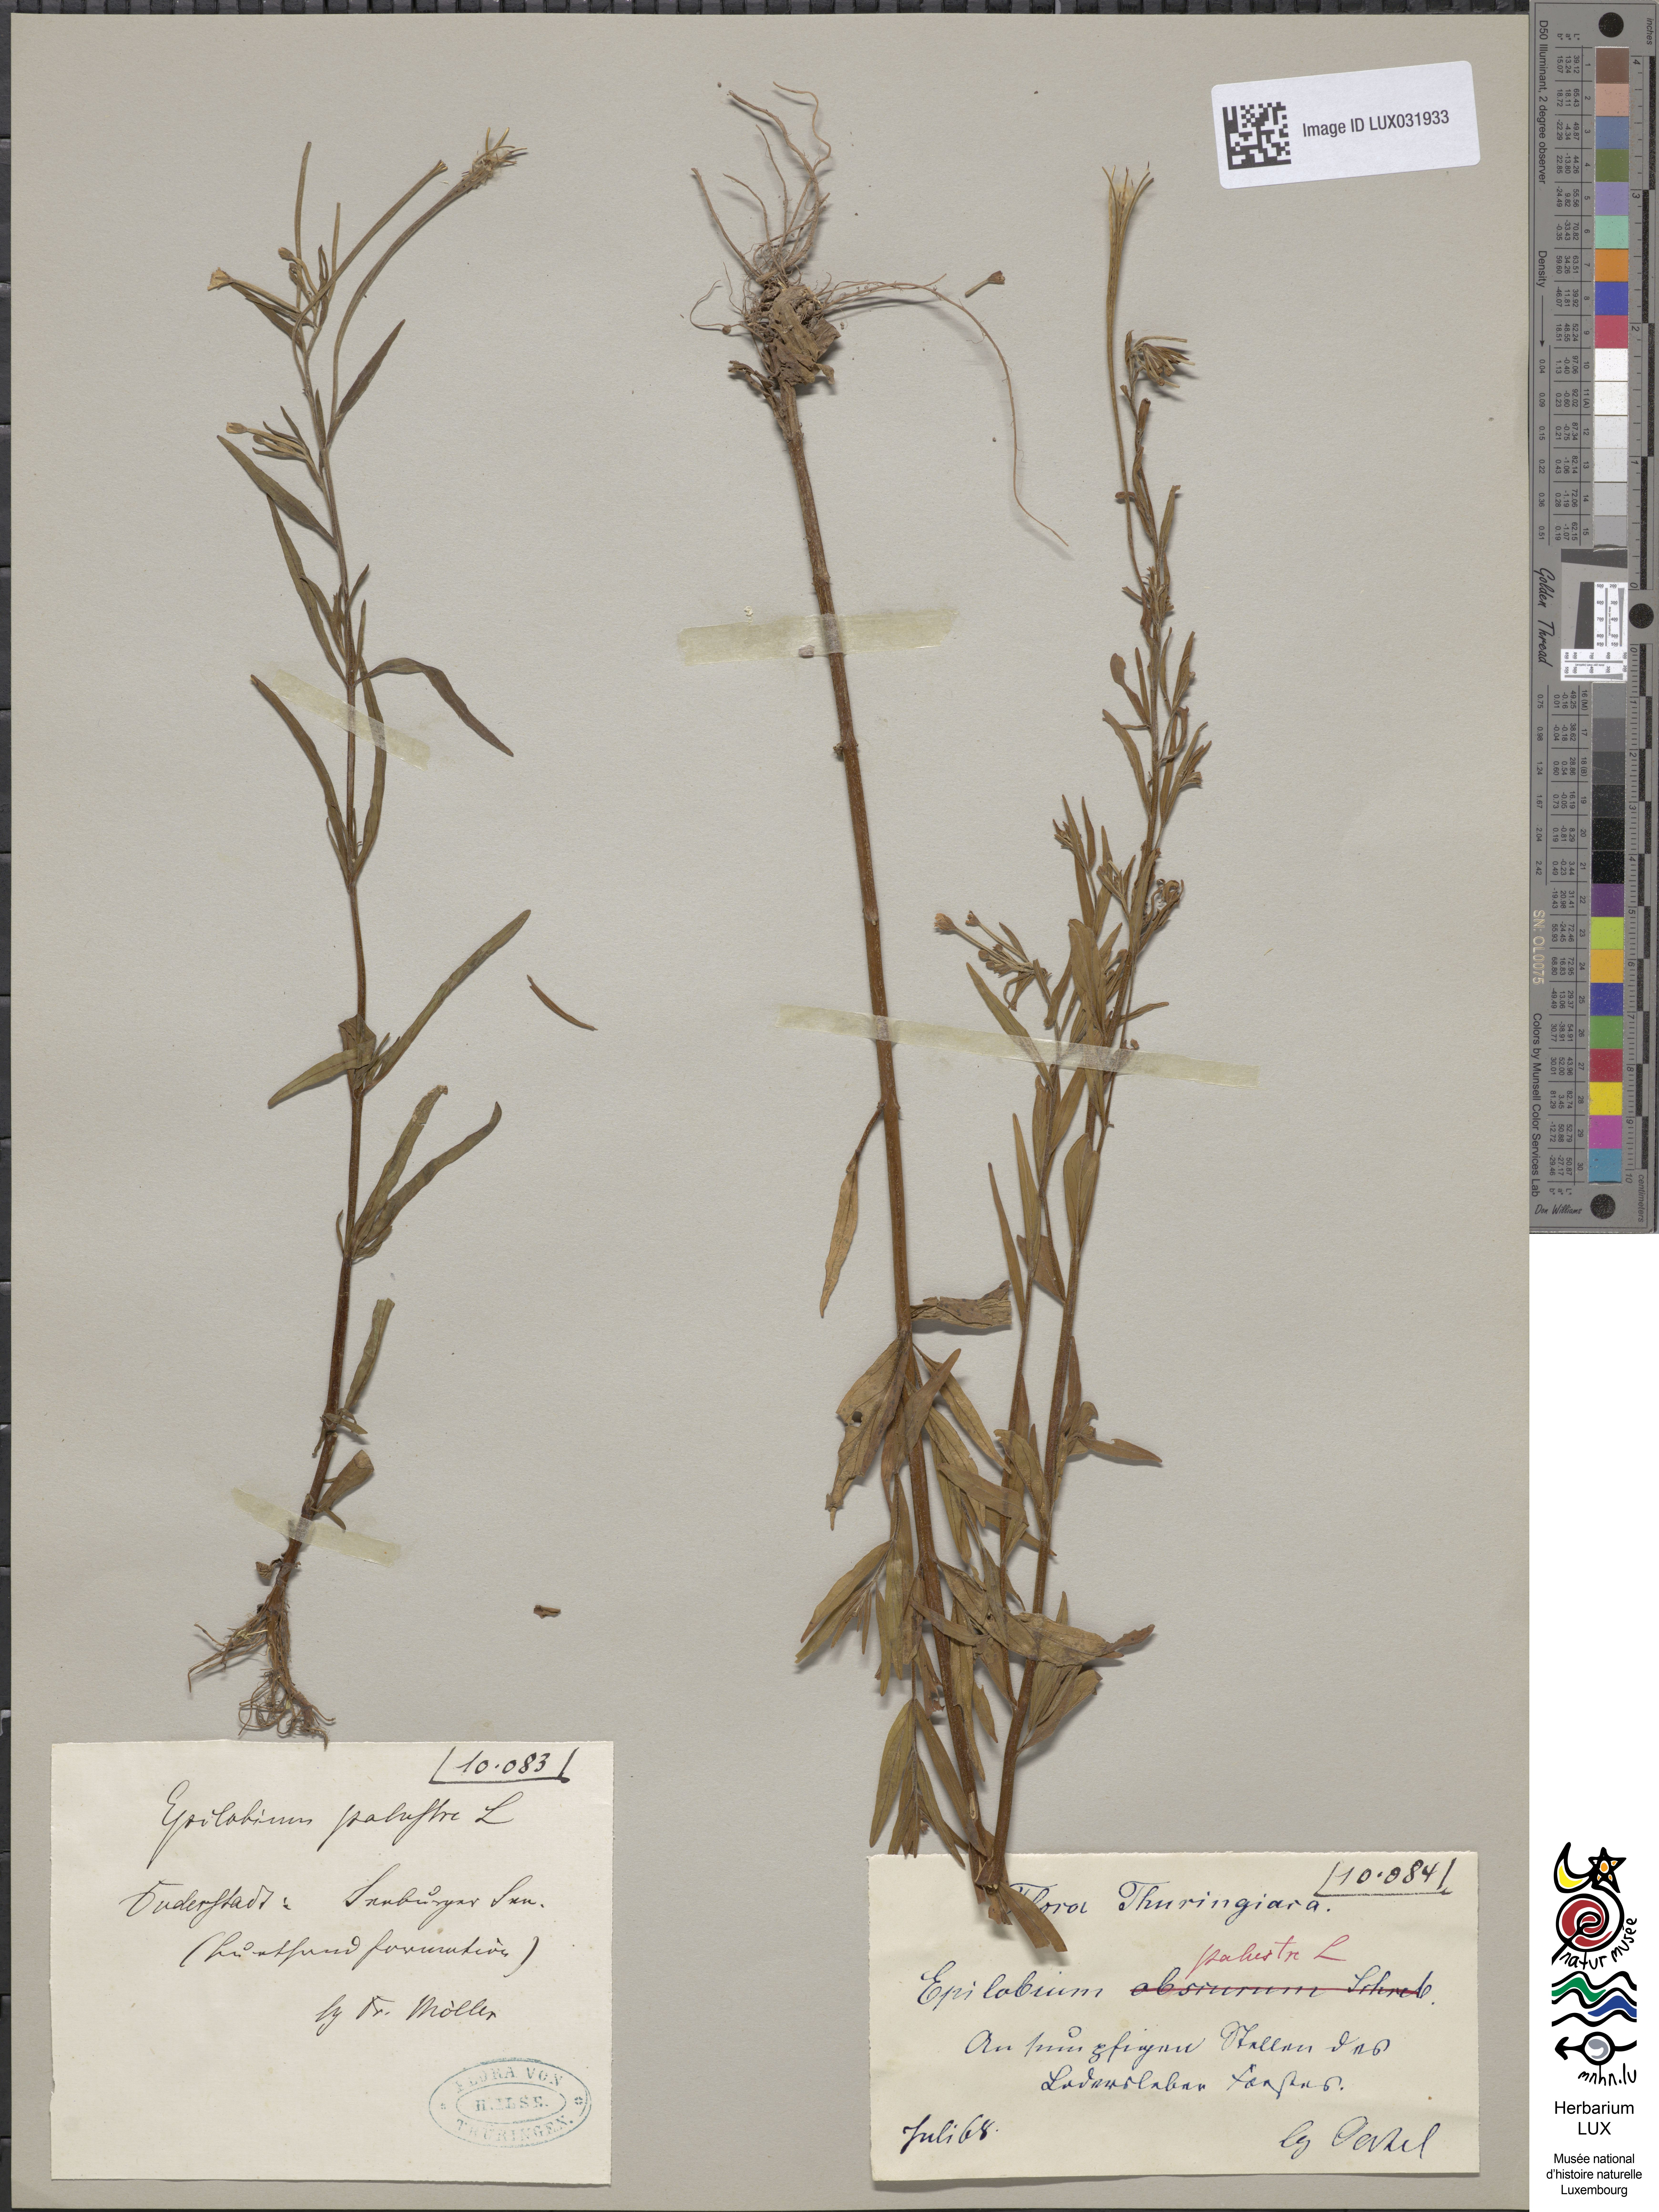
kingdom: Plantae
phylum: Tracheophyta
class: Magnoliopsida
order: Myrtales
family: Onagraceae
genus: Epilobium
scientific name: Epilobium palustre
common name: Marsh willowherb
